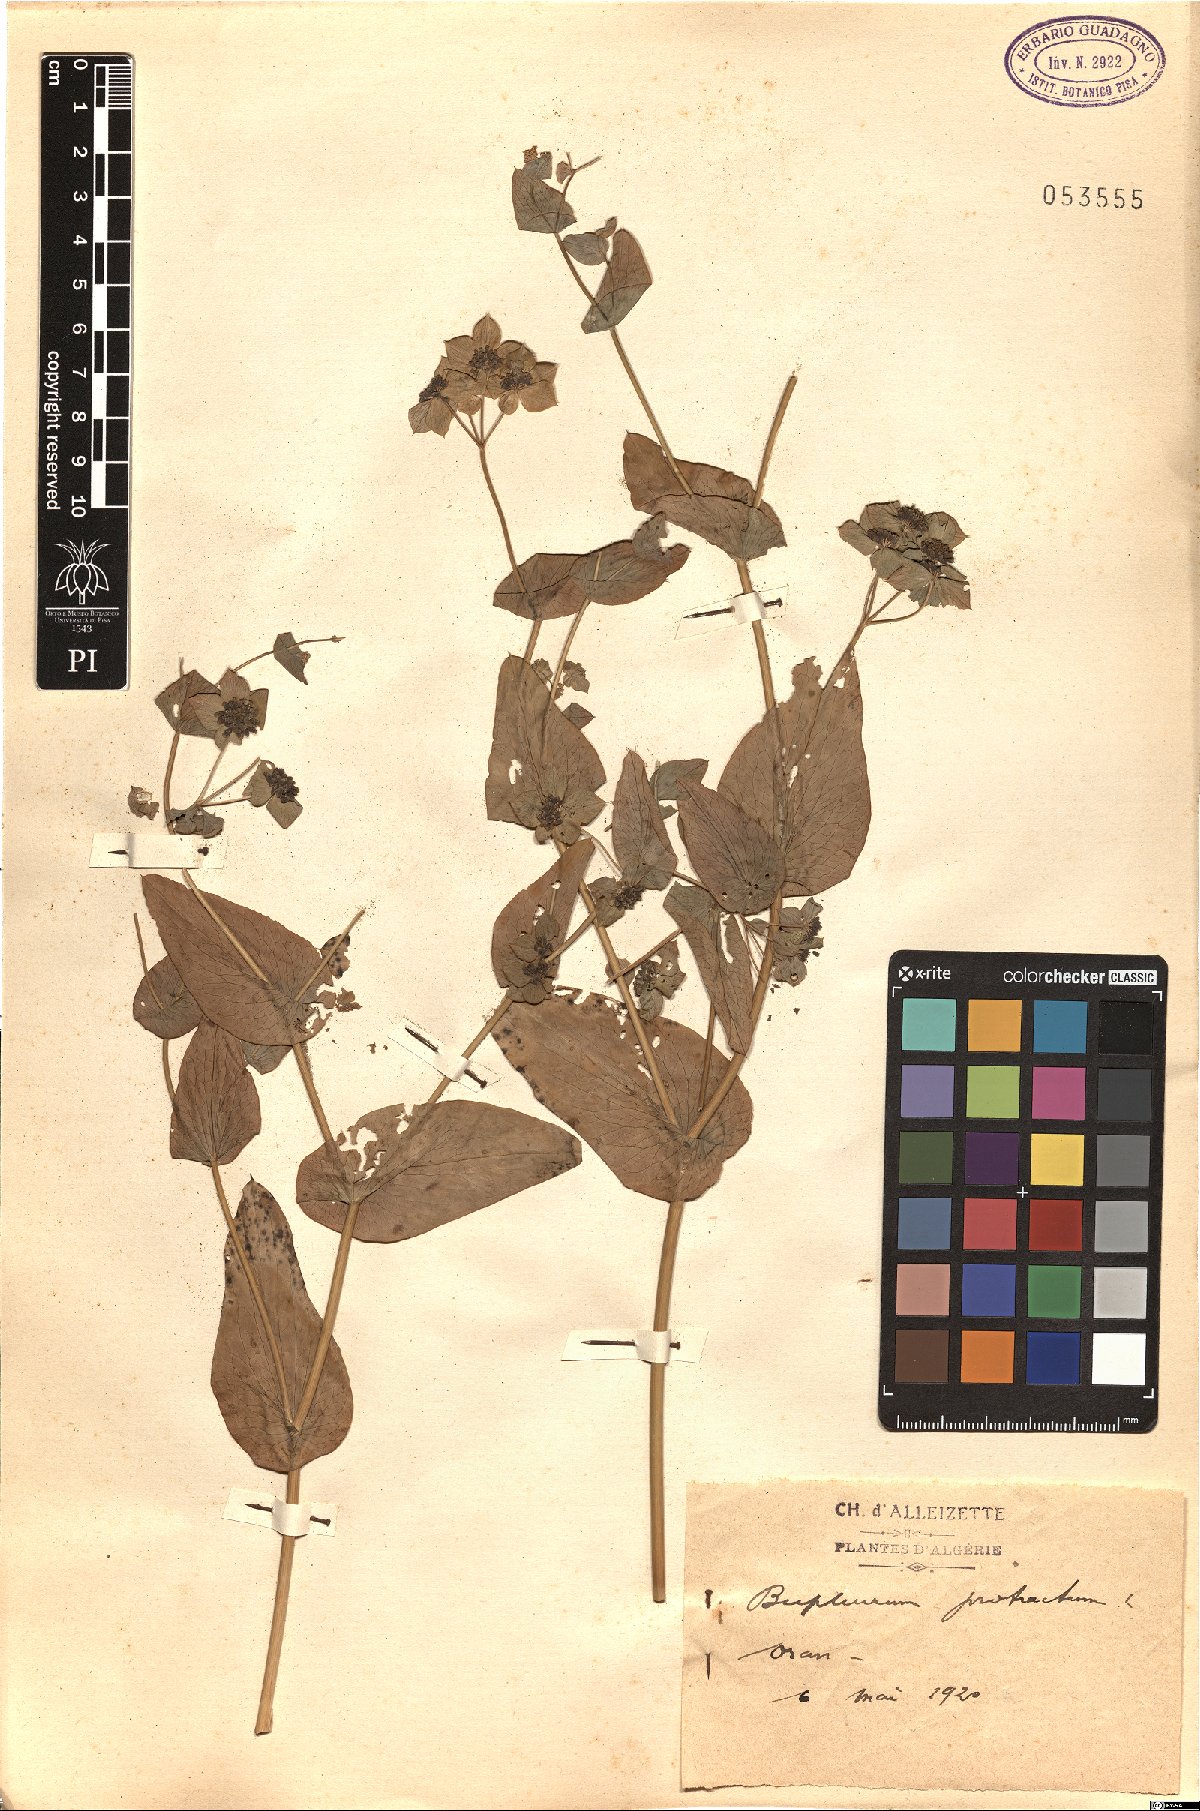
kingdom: Plantae
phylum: Tracheophyta
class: Magnoliopsida
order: Apiales
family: Apiaceae
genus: Bupleurum
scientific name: Bupleurum subovatum
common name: False thorow-wax
